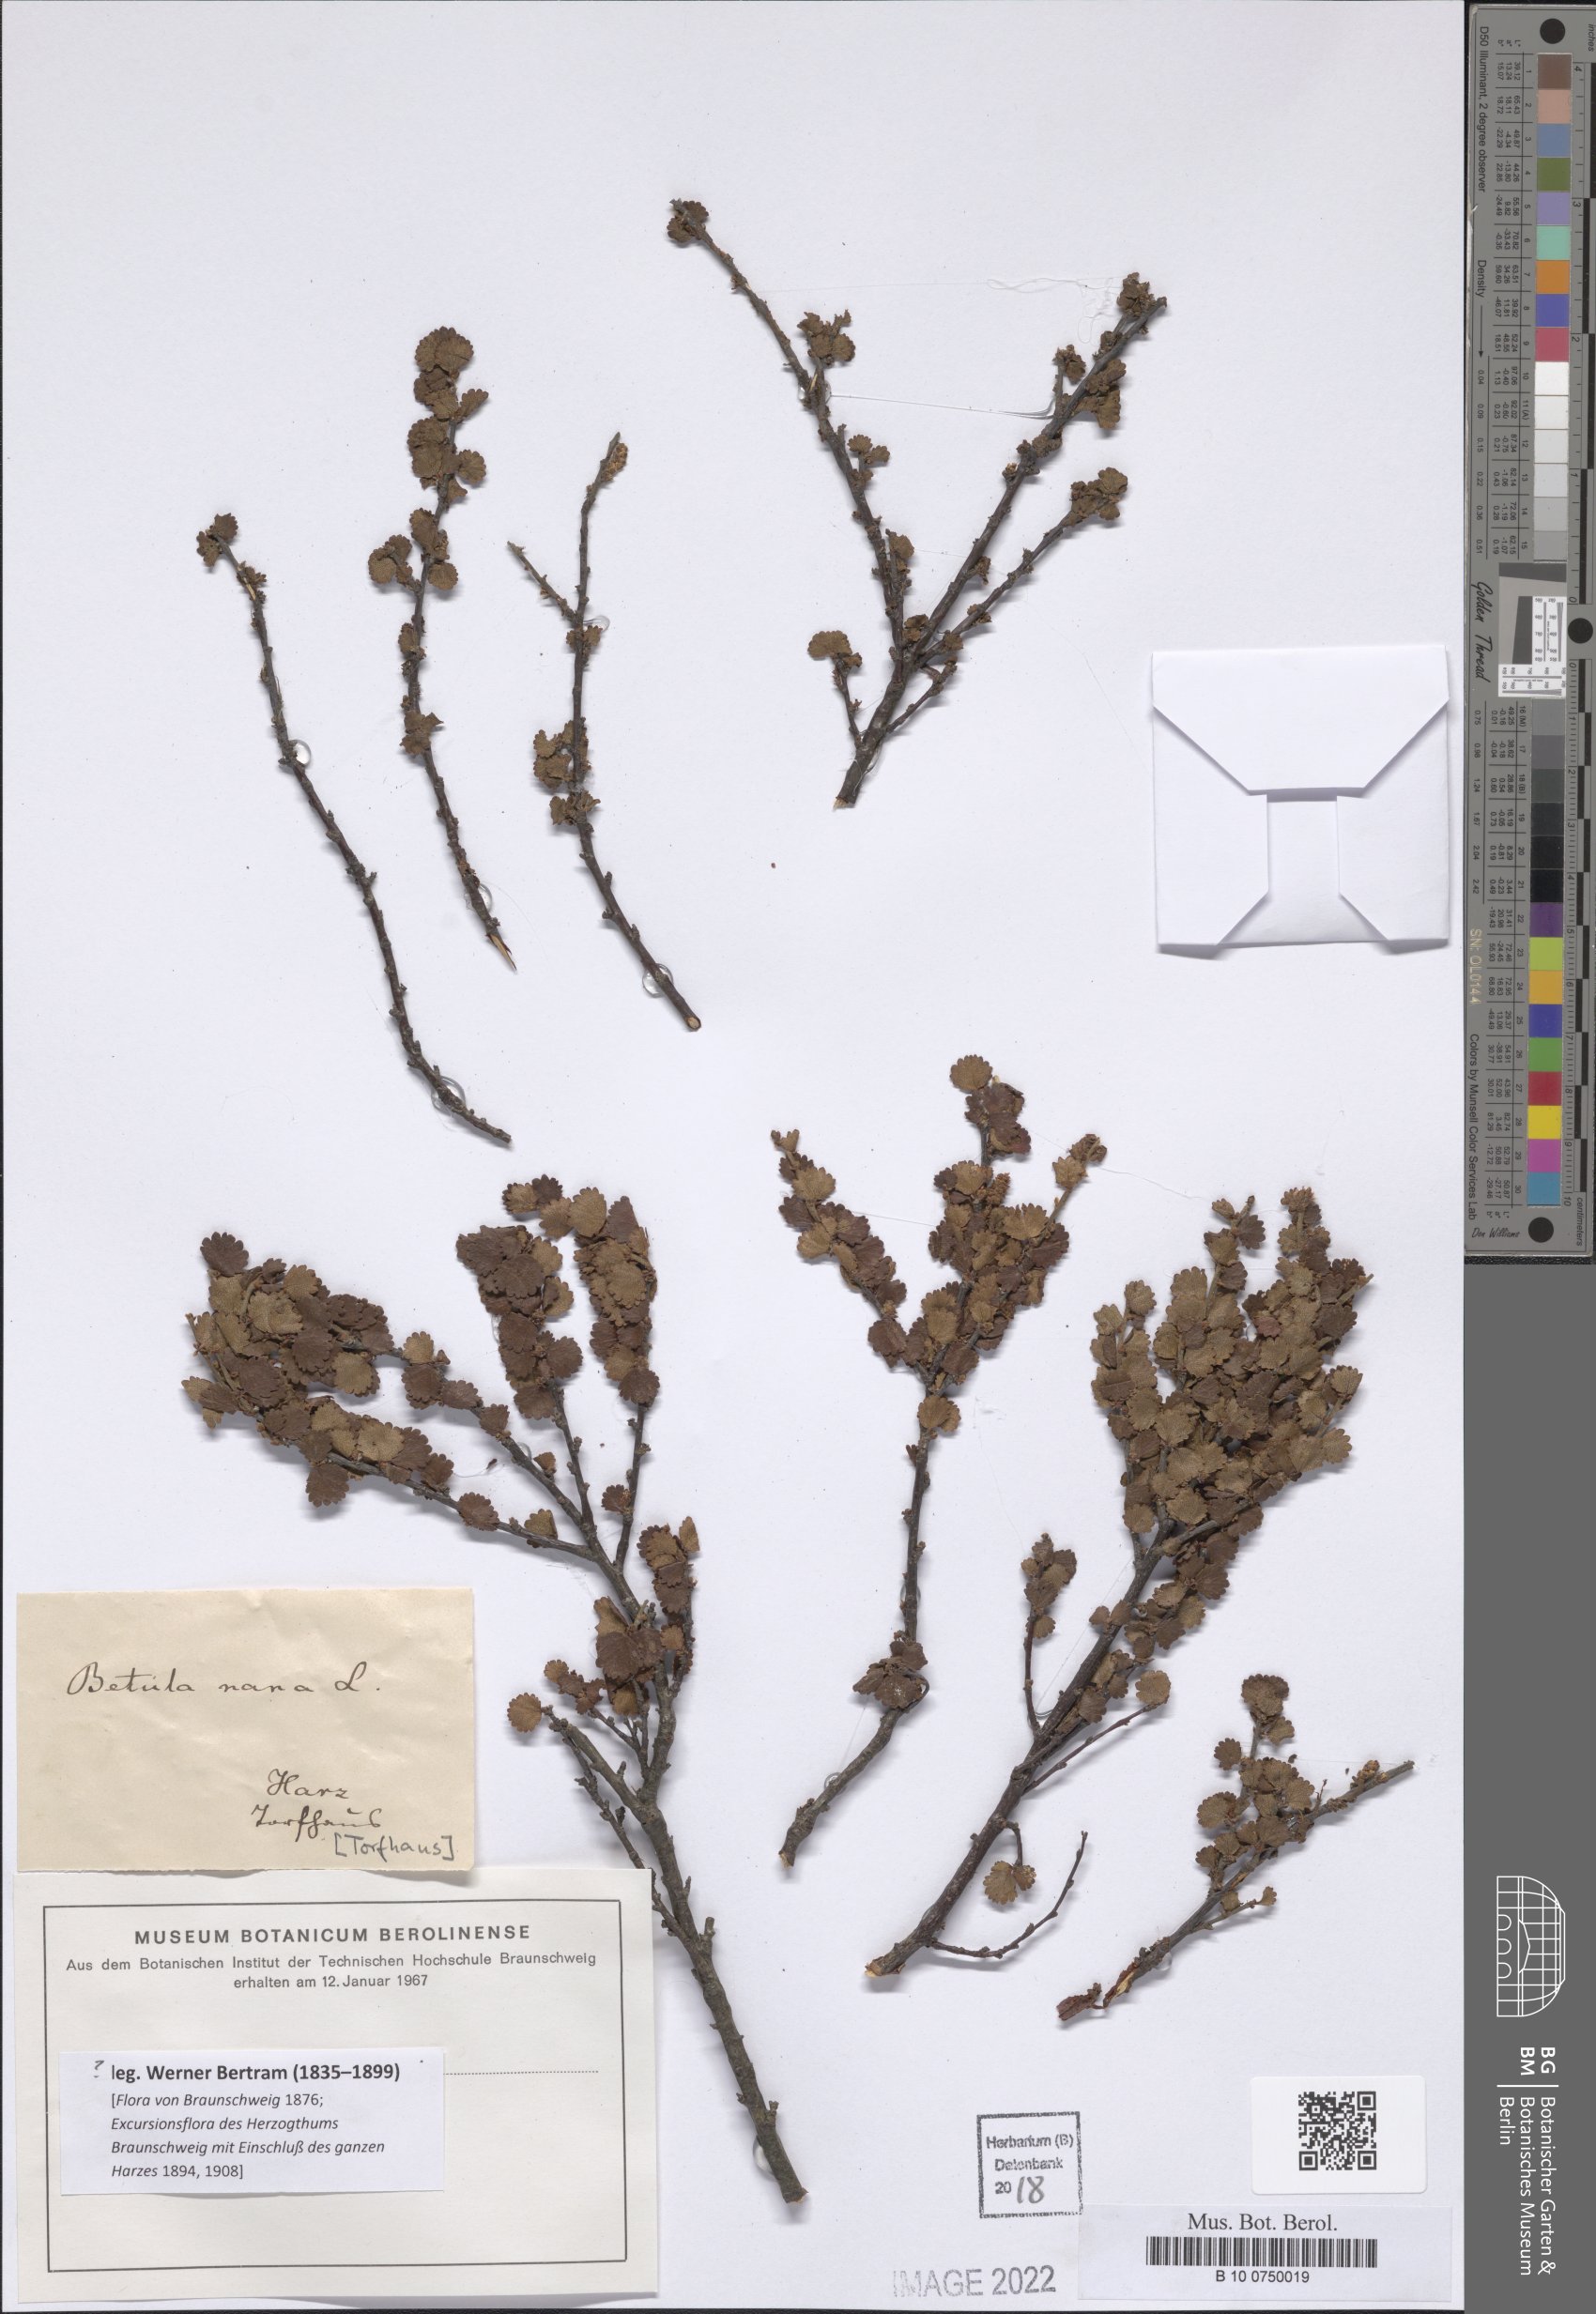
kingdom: Plantae
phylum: Tracheophyta
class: Magnoliopsida
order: Fagales
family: Betulaceae
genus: Betula
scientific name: Betula nana
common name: Arctic dwarf birch
